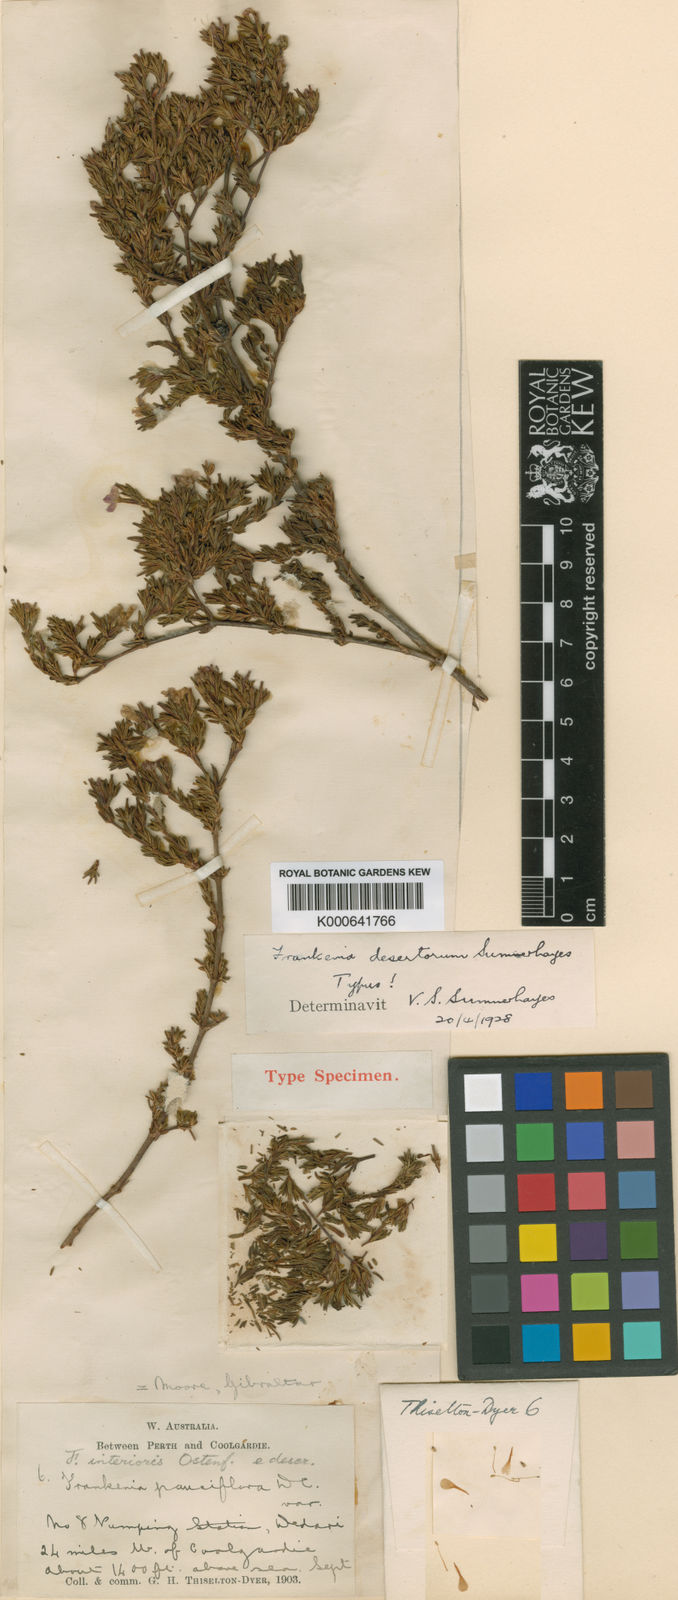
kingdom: Plantae
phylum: Tracheophyta
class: Magnoliopsida
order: Caryophyllales
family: Frankeniaceae
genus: Frankenia
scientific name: Frankenia desertorum
